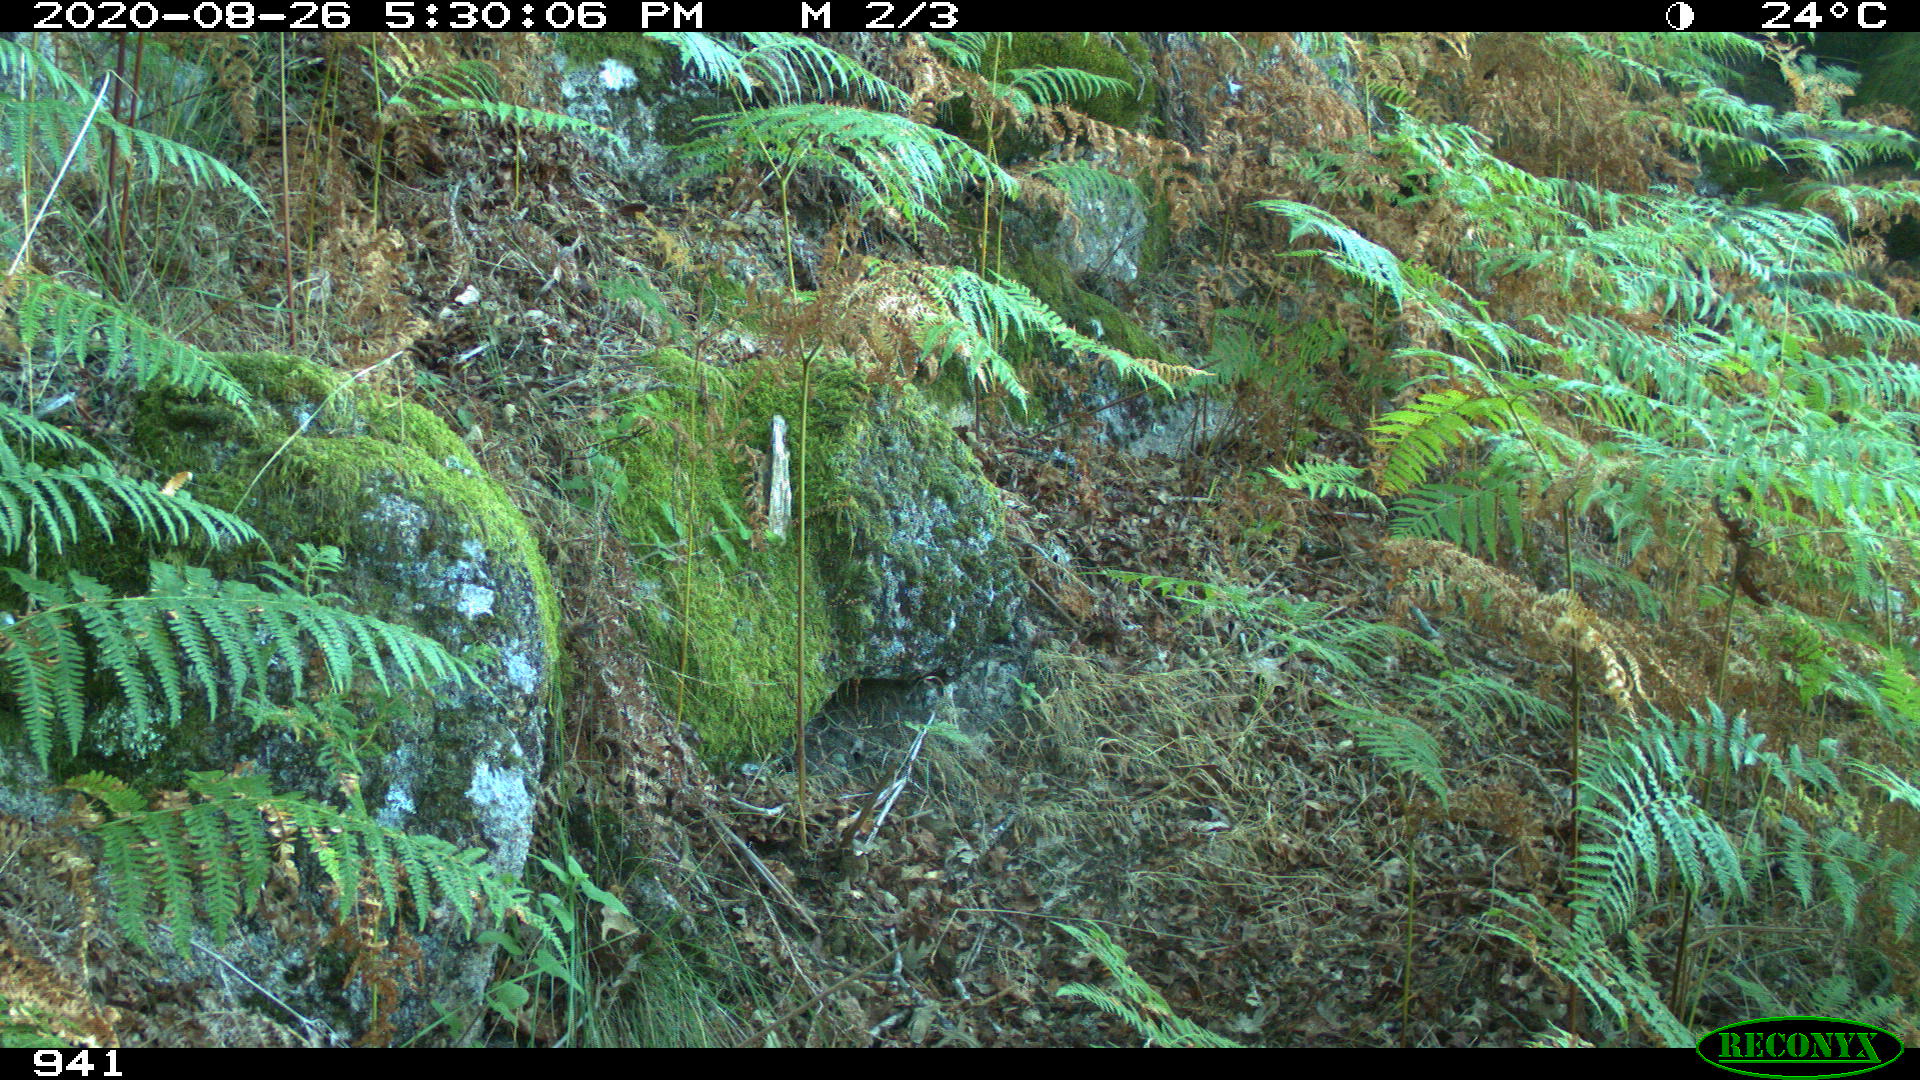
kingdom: Animalia
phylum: Chordata
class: Mammalia
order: Artiodactyla
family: Suidae
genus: Sus
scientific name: Sus scrofa
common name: Wild boar
